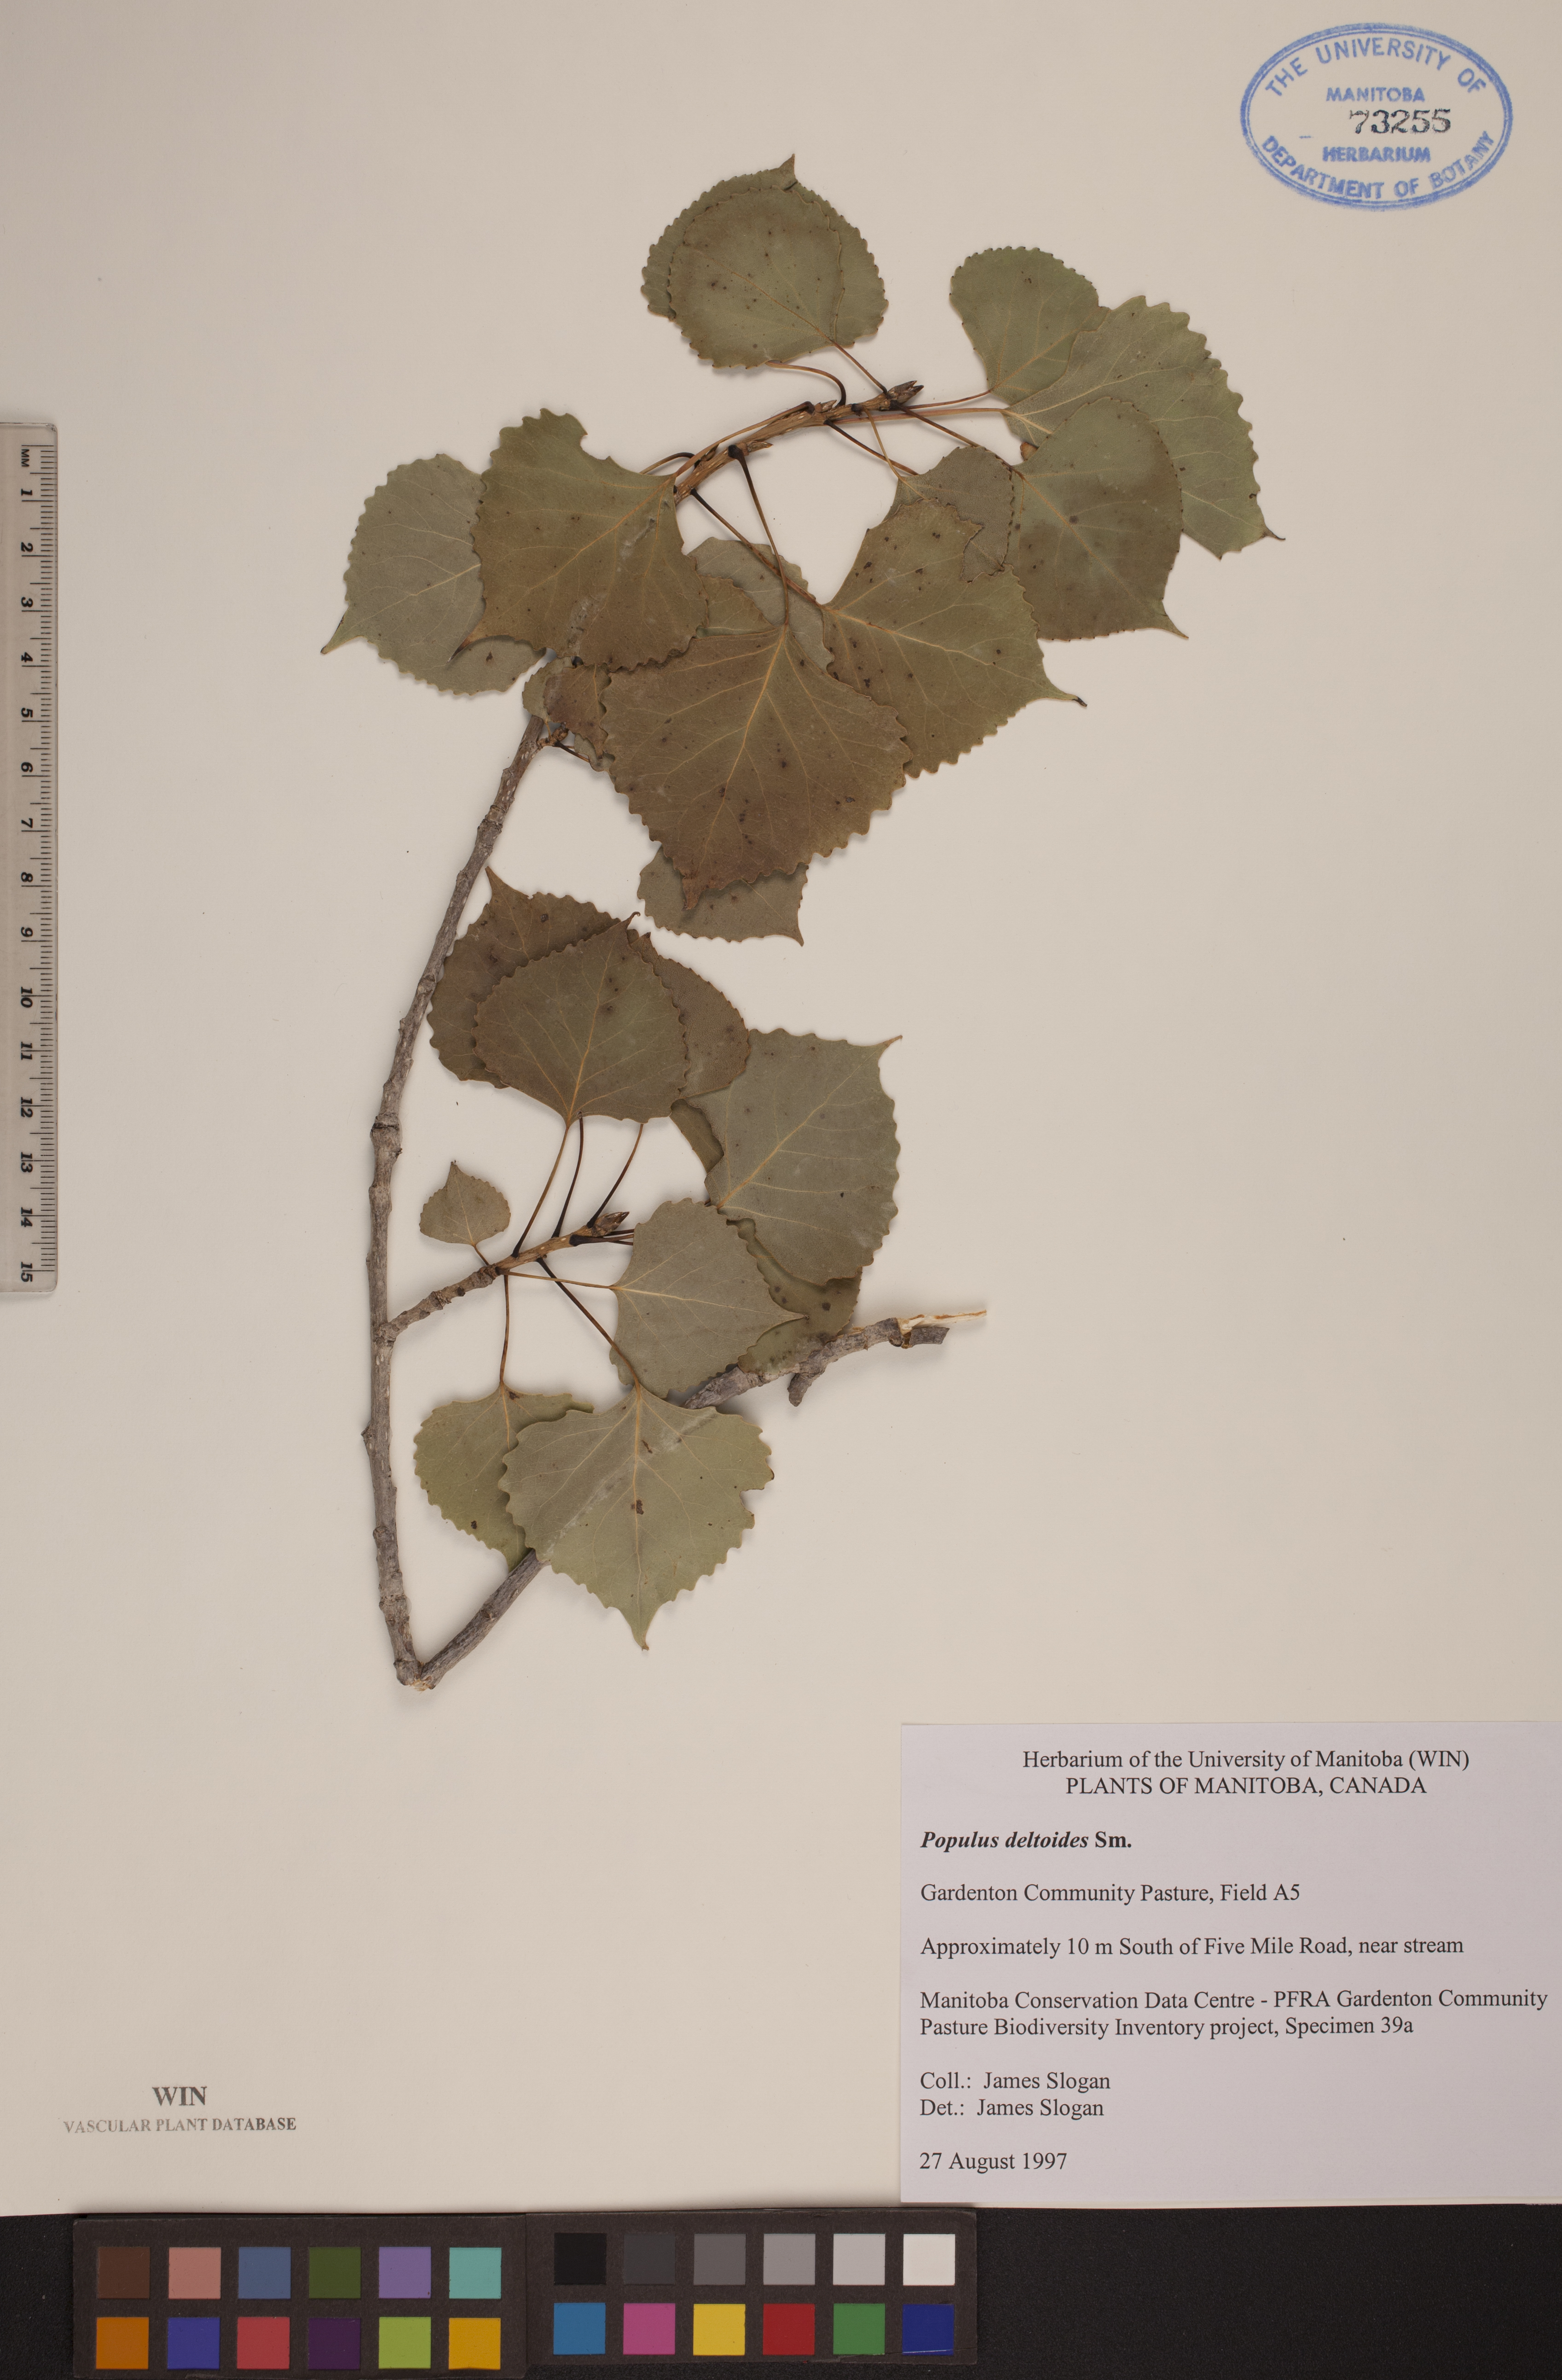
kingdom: Plantae
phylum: Tracheophyta
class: Magnoliopsida
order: Malpighiales
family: Salicaceae
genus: Populus
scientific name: Populus deltoides
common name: Eastern cottonwood
